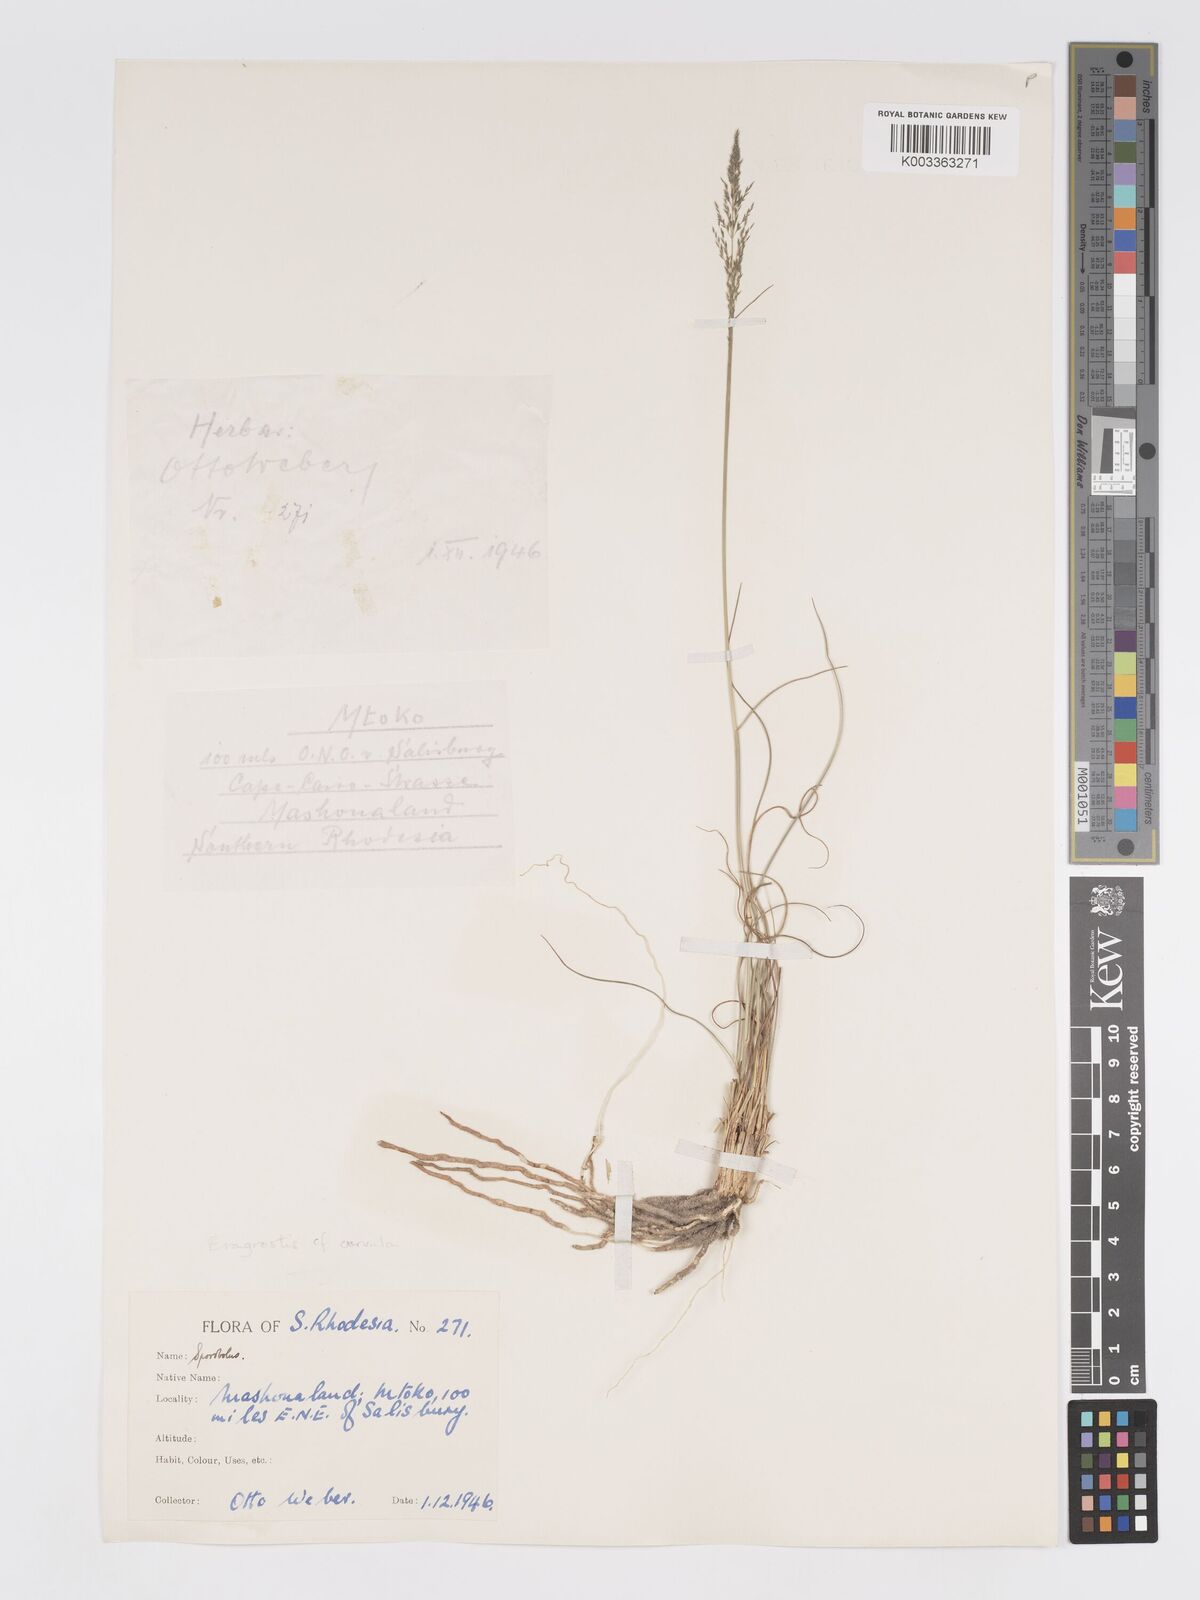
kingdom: Plantae
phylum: Tracheophyta
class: Liliopsida
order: Poales
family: Poaceae
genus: Eragrostis
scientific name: Eragrostis curvula
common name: African love-grass
